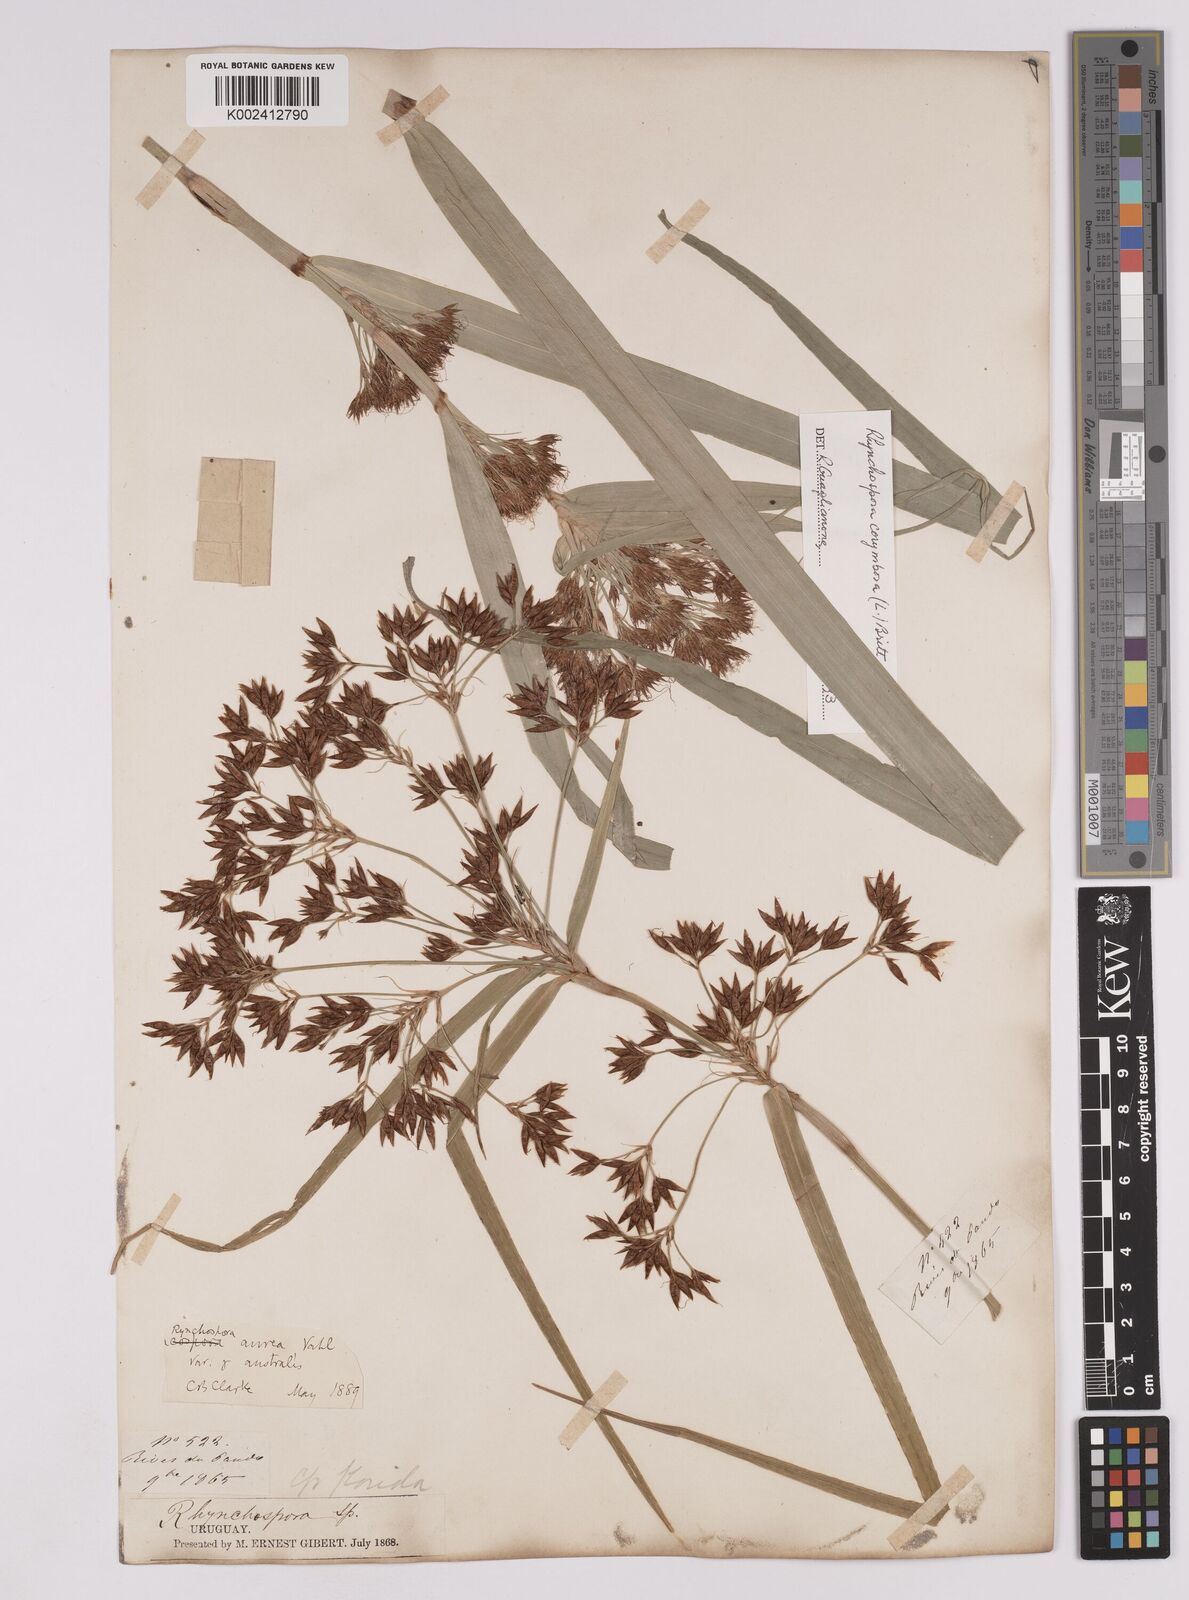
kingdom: Plantae
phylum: Tracheophyta
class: Liliopsida
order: Poales
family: Cyperaceae
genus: Rhynchospora
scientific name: Rhynchospora corymbosa
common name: Golden beak sedge
